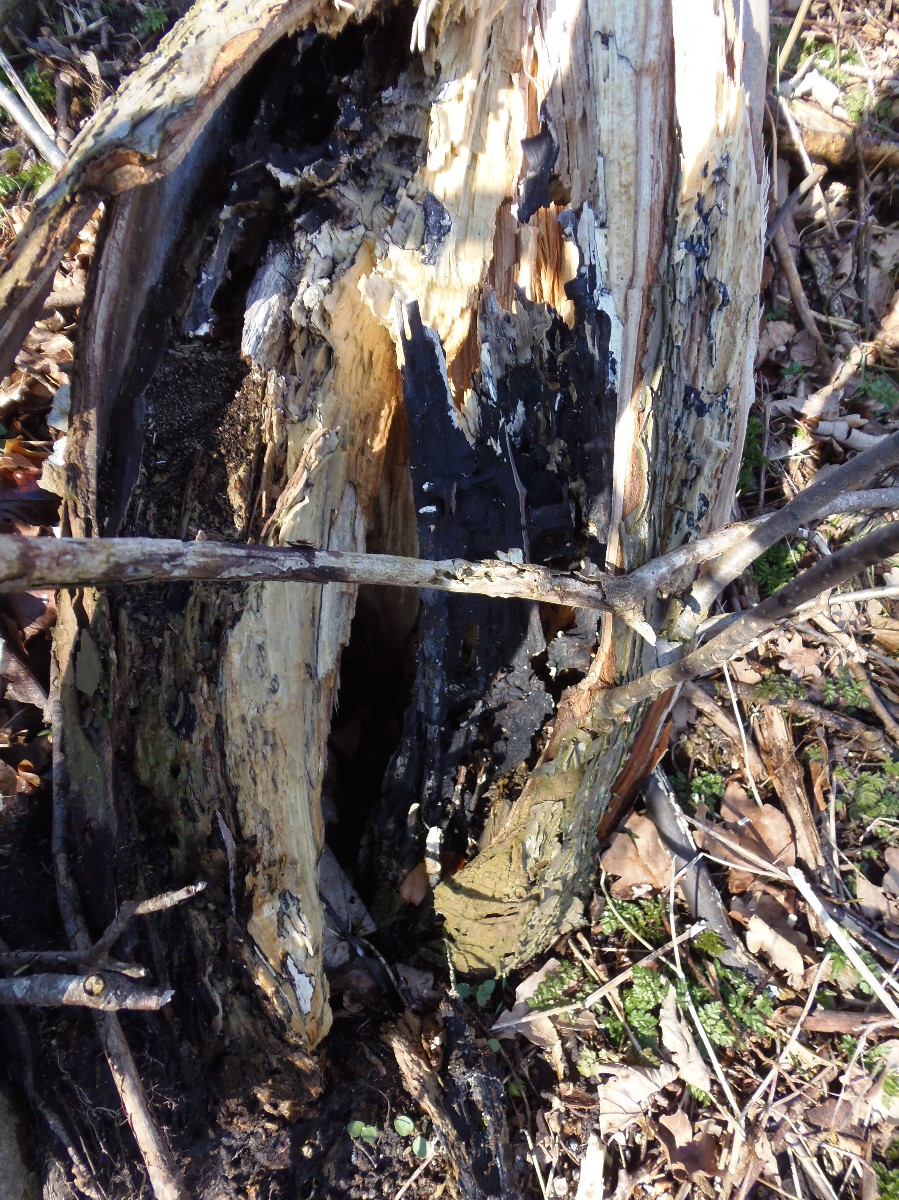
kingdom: Fungi
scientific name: Fungi
